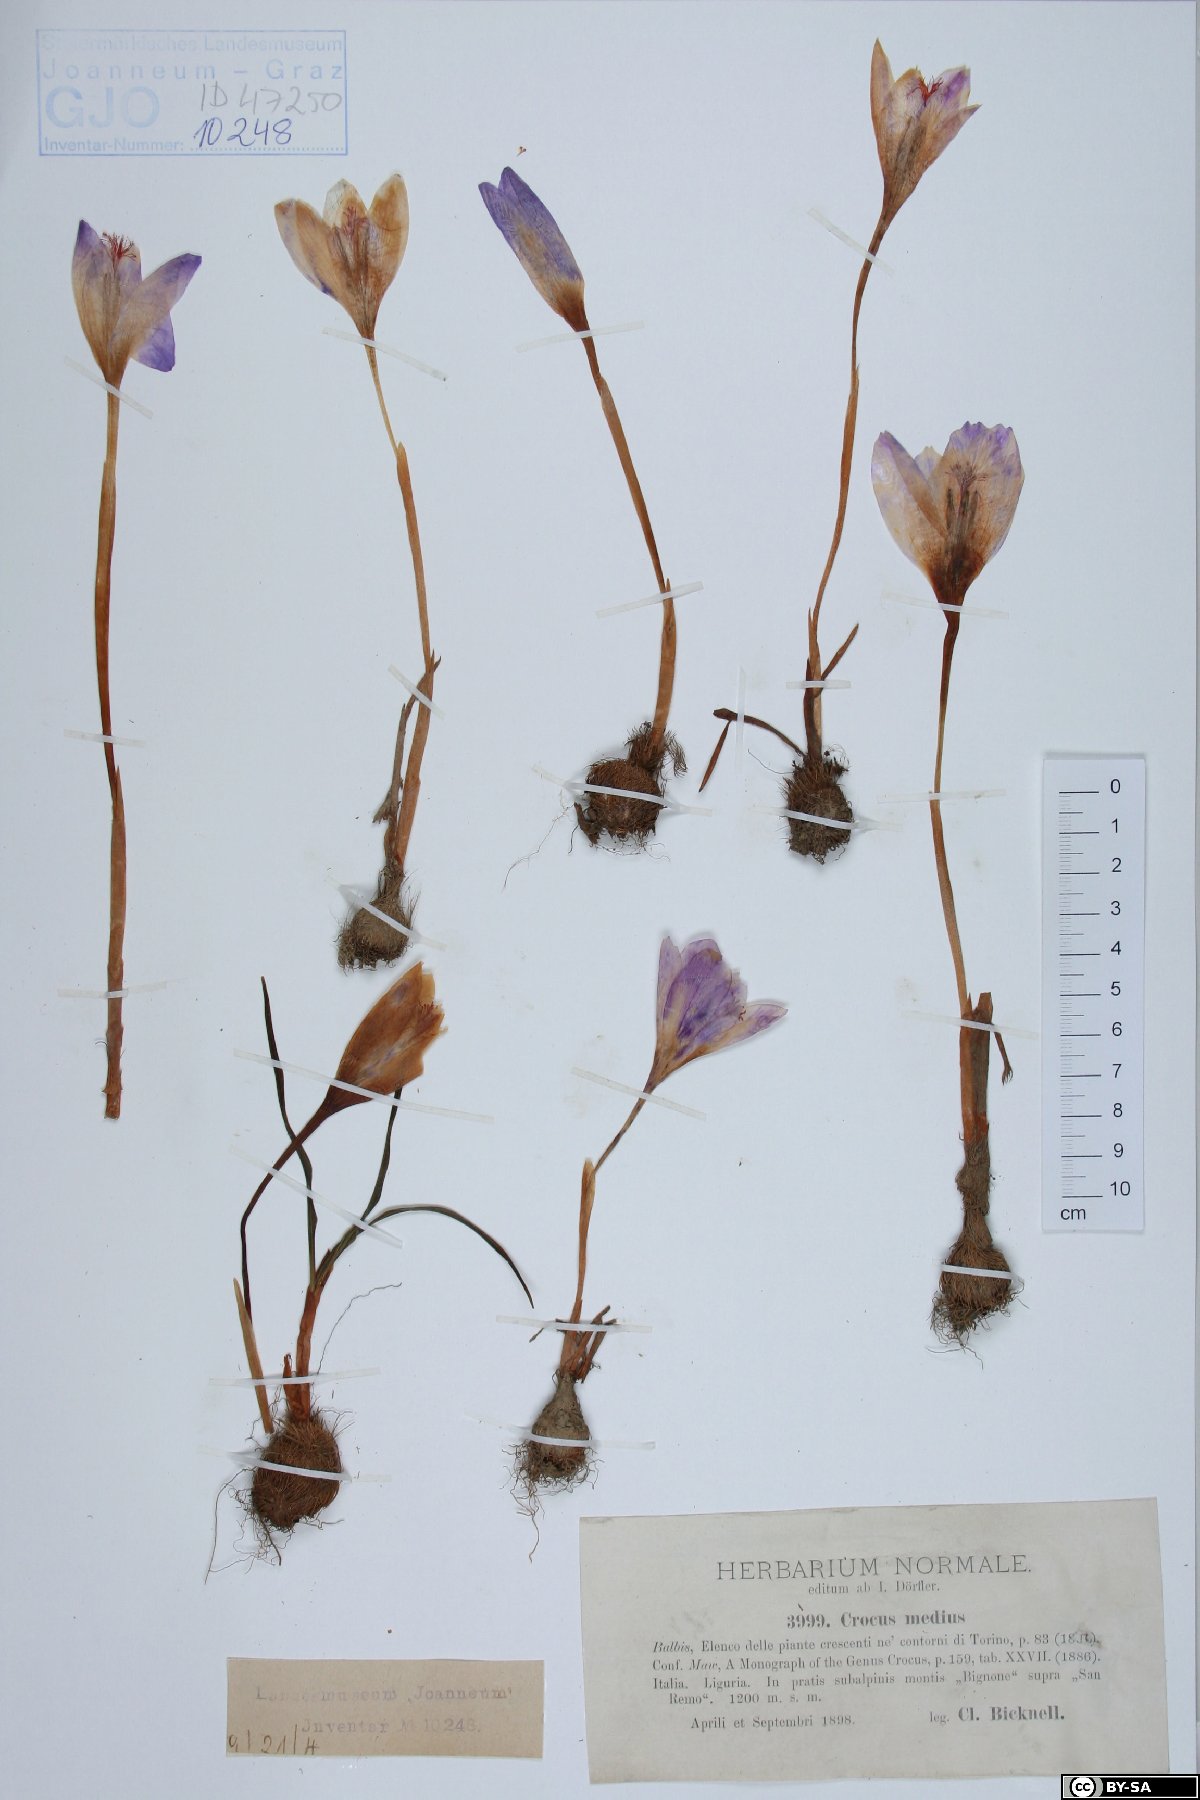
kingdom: Plantae
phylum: Tracheophyta
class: Liliopsida
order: Asparagales
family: Iridaceae
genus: Crocus
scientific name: Crocus nudiflorus
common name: Autumn crocus
